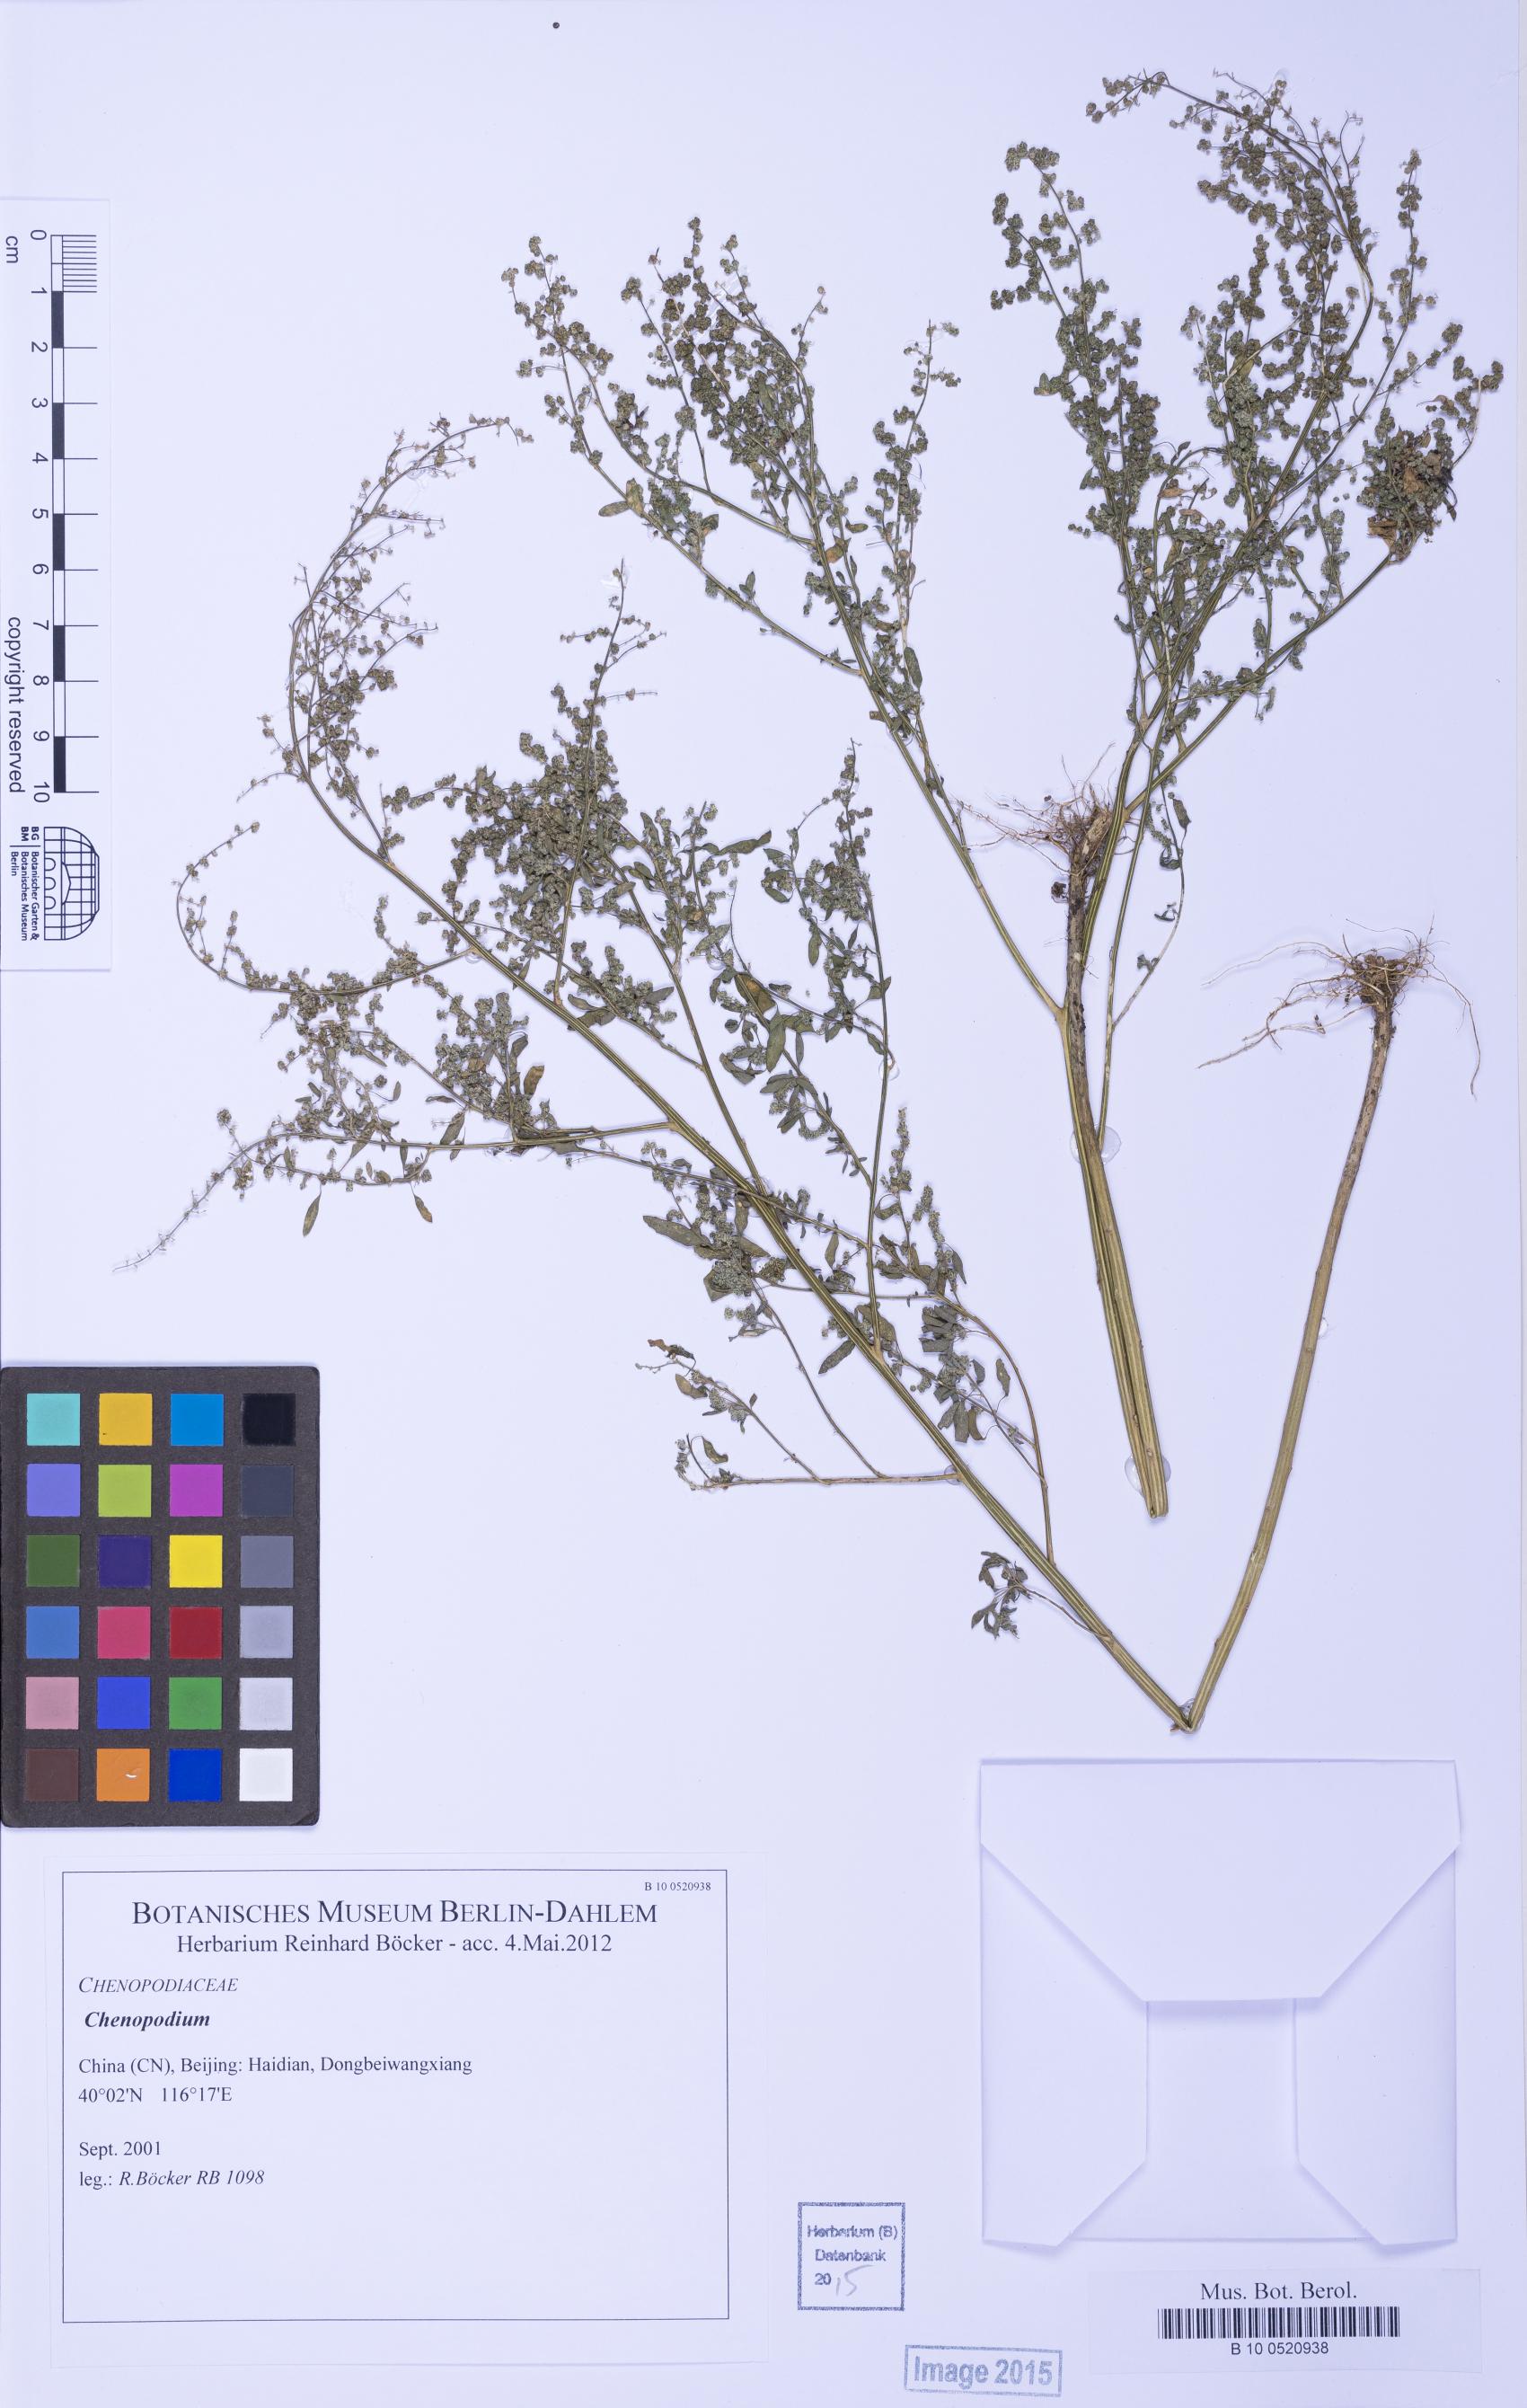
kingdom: Plantae
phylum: Tracheophyta
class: Magnoliopsida
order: Caryophyllales
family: Amaranthaceae
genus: Chenopodium
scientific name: Chenopodium
